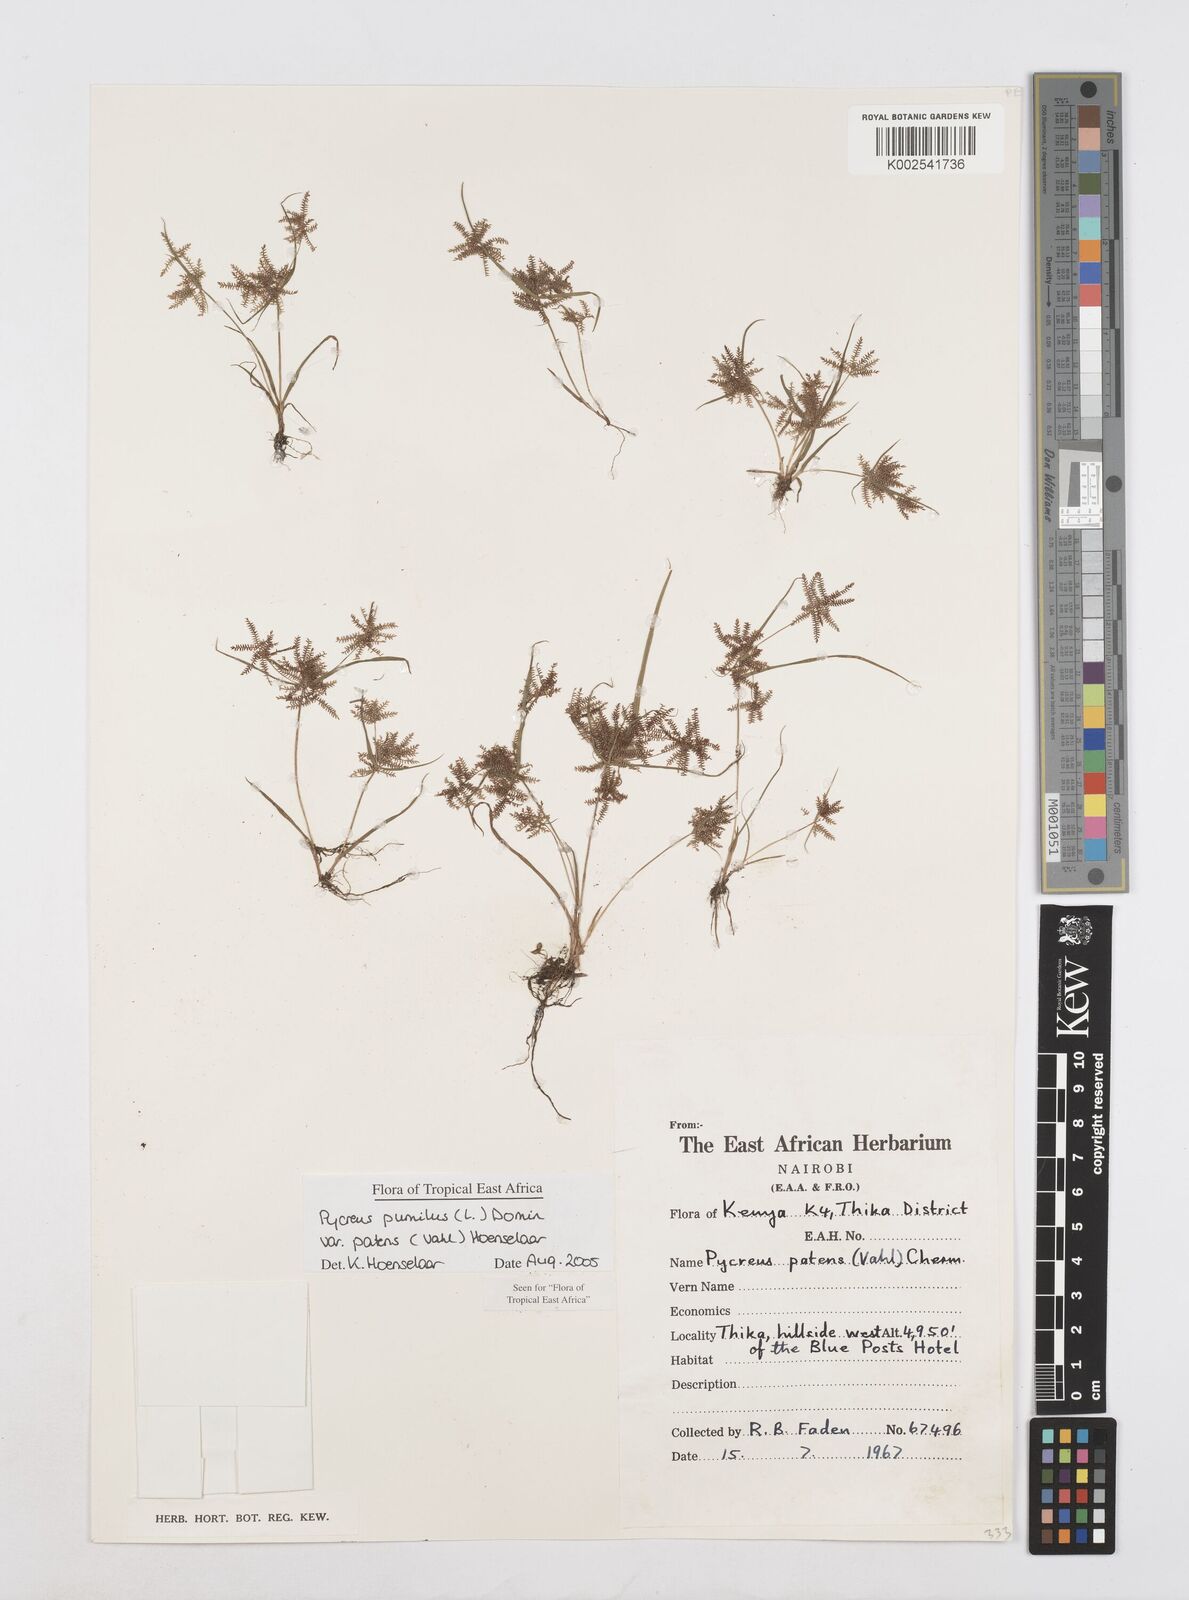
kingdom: Plantae
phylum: Tracheophyta
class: Liliopsida
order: Poales
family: Cyperaceae
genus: Cyperus
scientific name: Cyperus pumilus
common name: Low flatsedge
